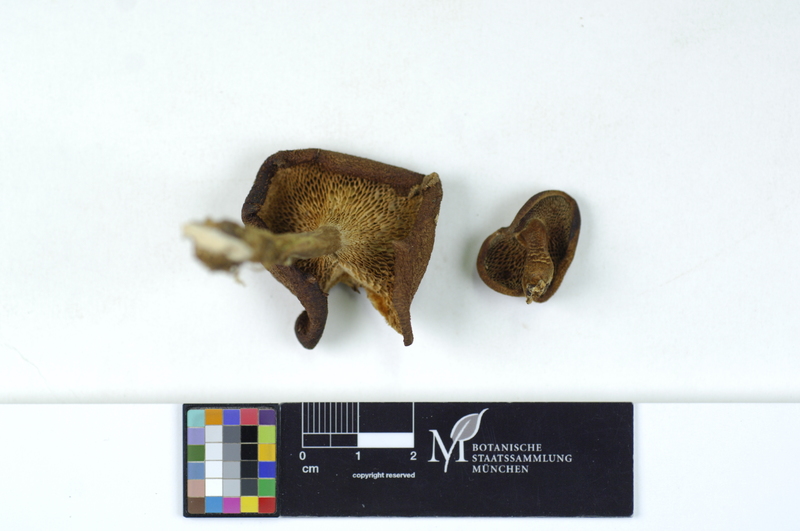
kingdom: Plantae
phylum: Tracheophyta
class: Magnoliopsida
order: Fagales
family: Fagaceae
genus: Fagus
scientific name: Fagus sylvatica
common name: Beech
